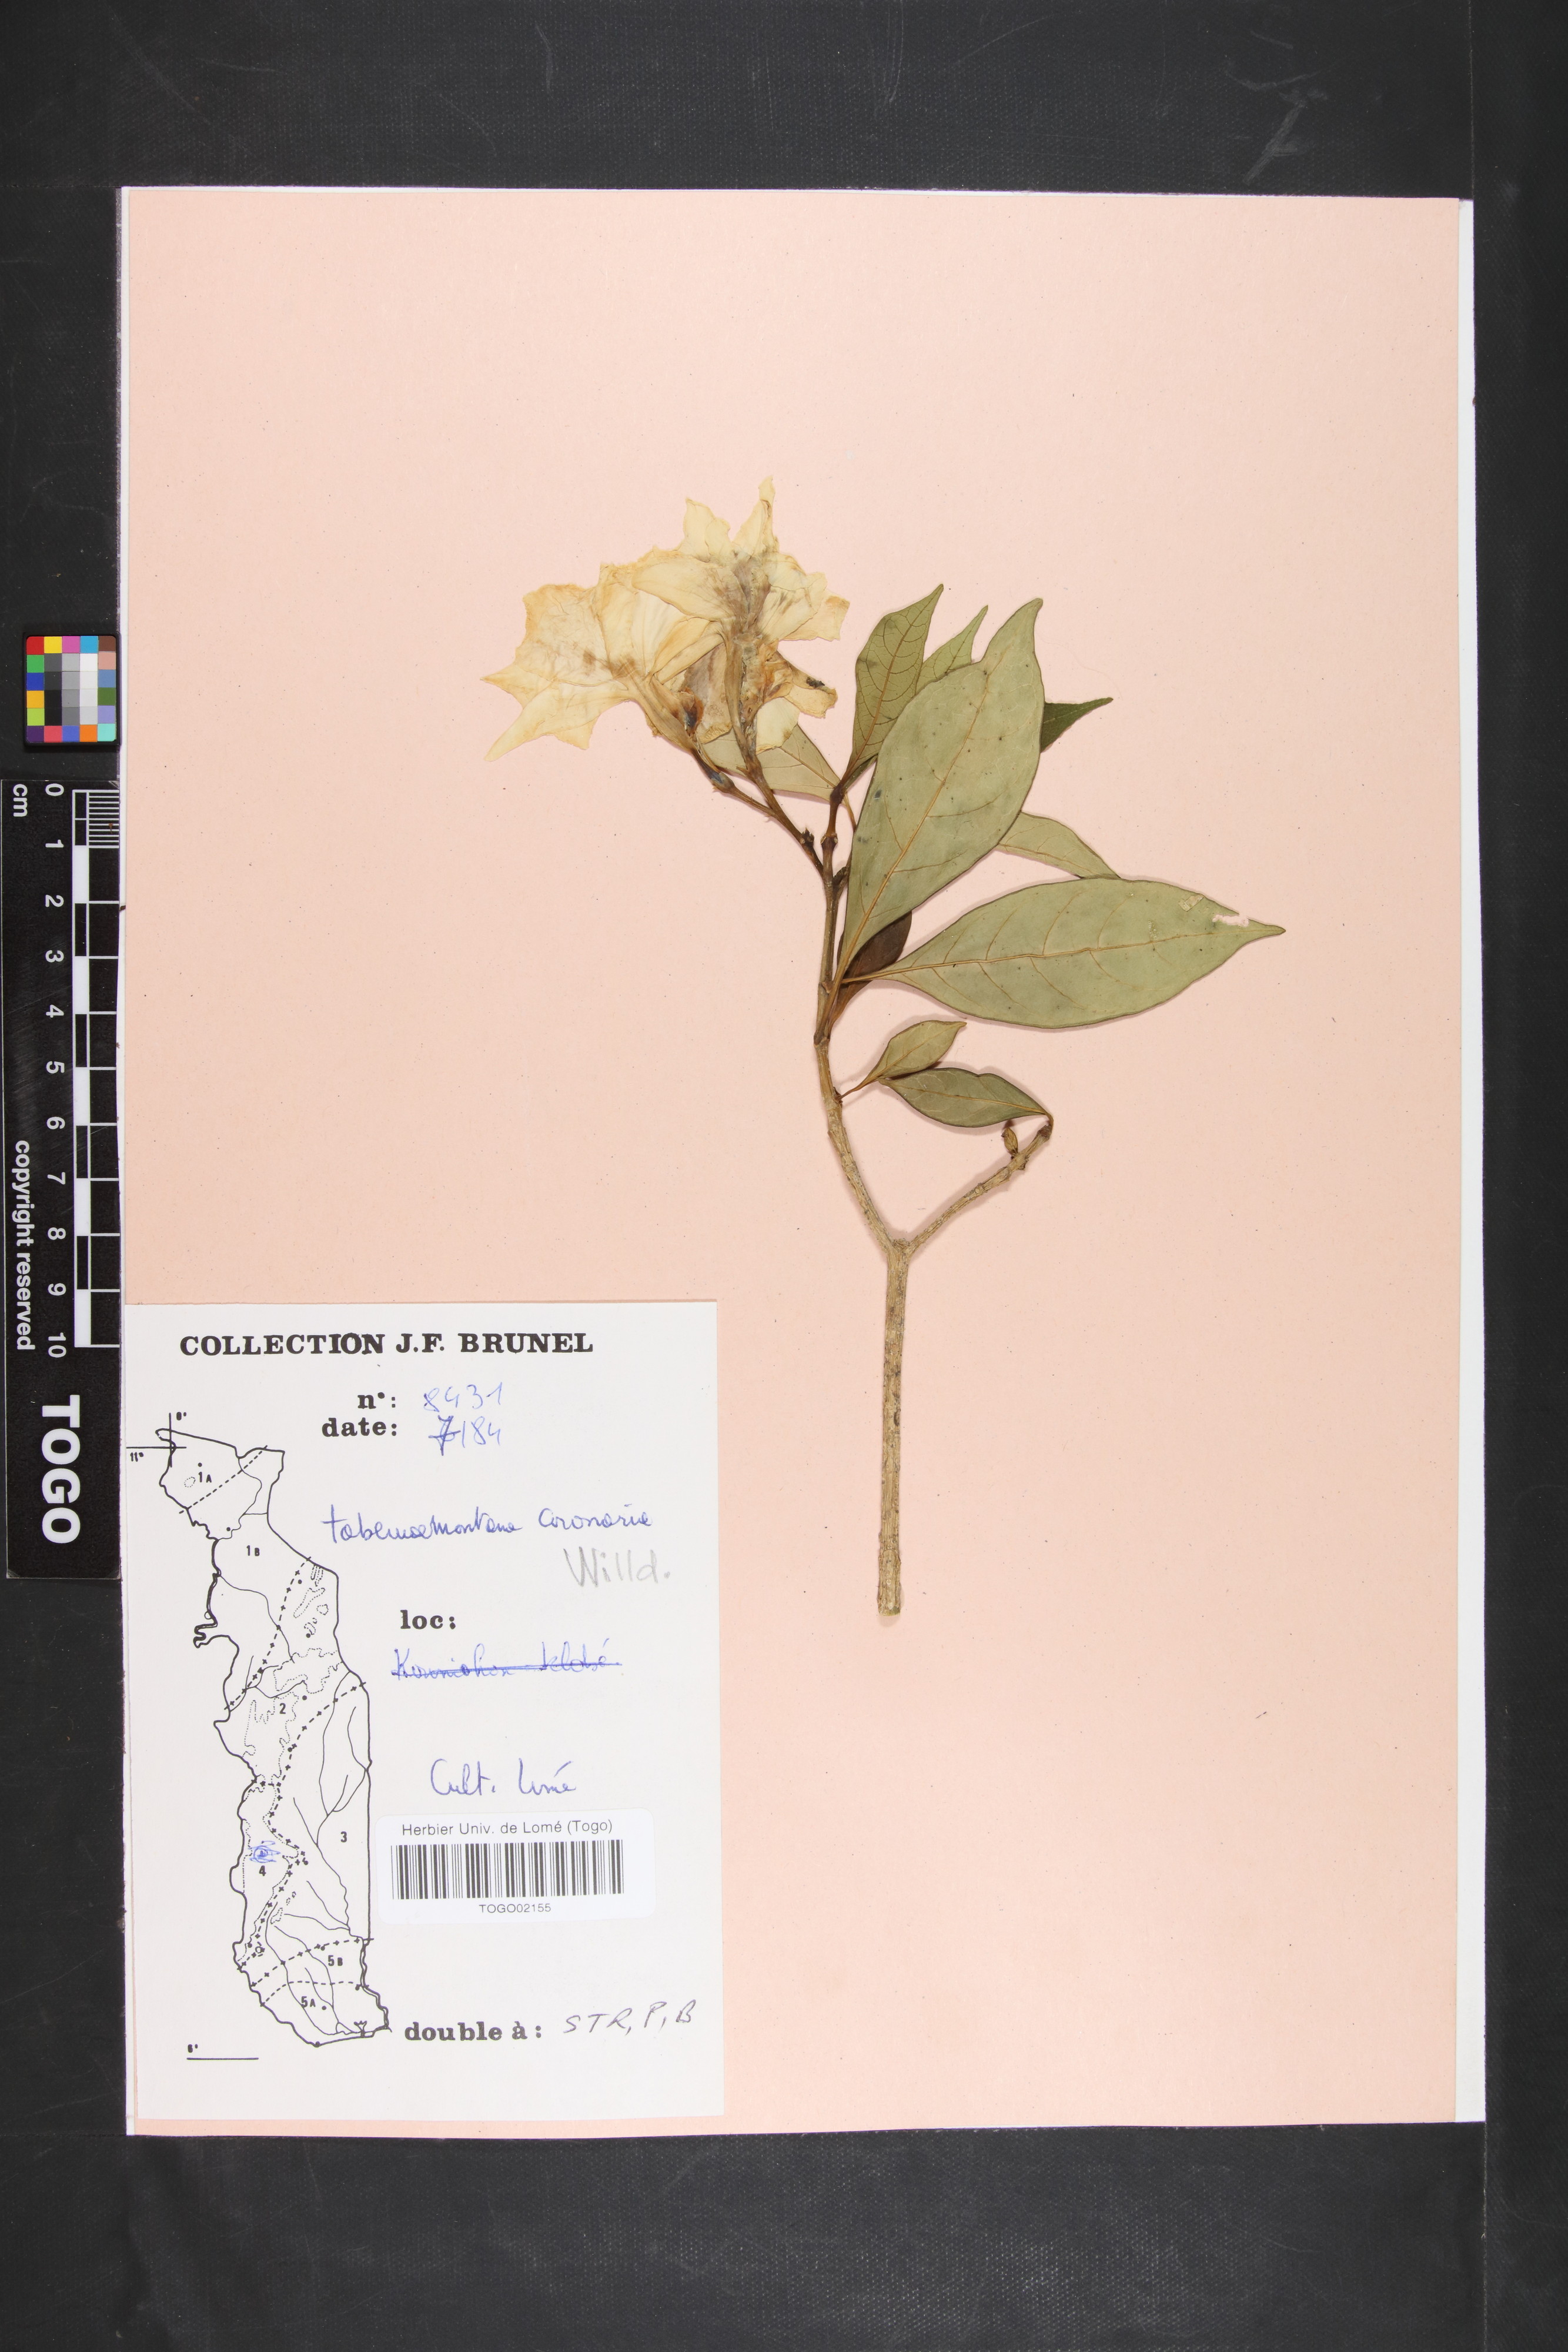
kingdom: Plantae
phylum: Tracheophyta
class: Magnoliopsida
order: Gentianales
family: Apocynaceae
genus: Tabernaemontana
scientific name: Tabernaemontana divaricata
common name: Pinwheelflower
